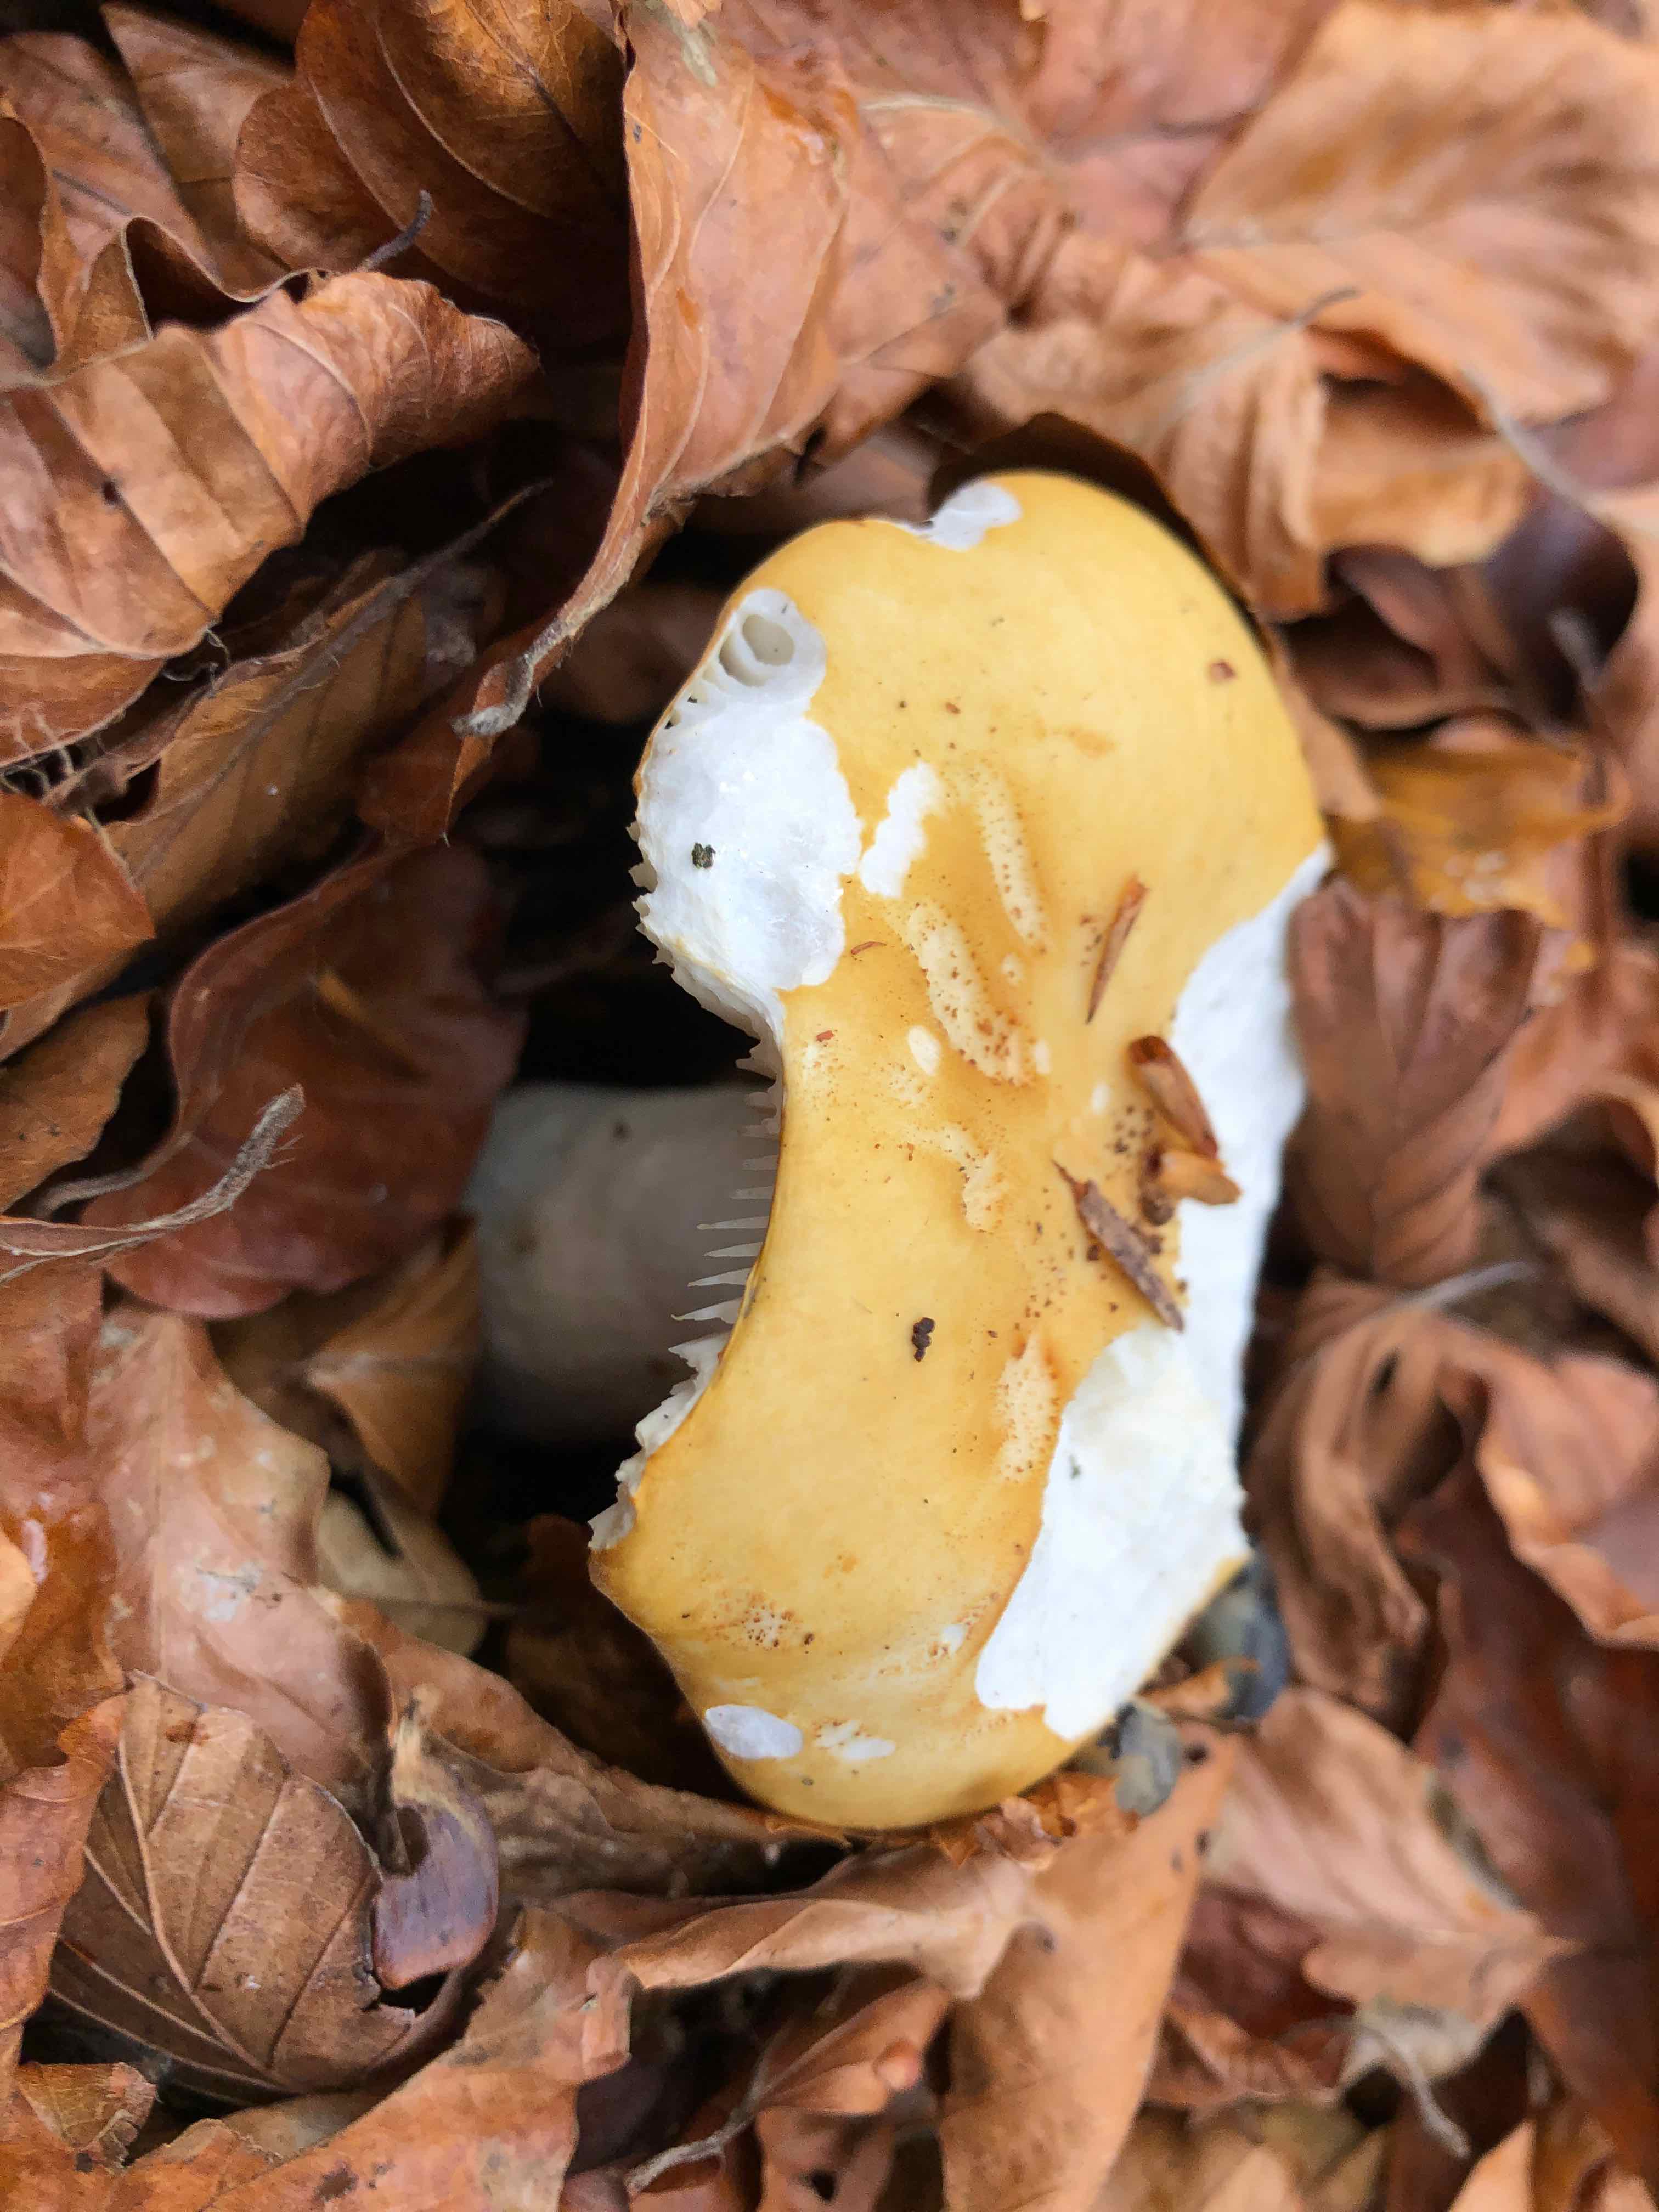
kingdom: Fungi
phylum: Basidiomycota
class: Agaricomycetes
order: Russulales
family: Russulaceae
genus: Russula
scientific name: Russula ochroleuca
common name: okkergul skørhat
